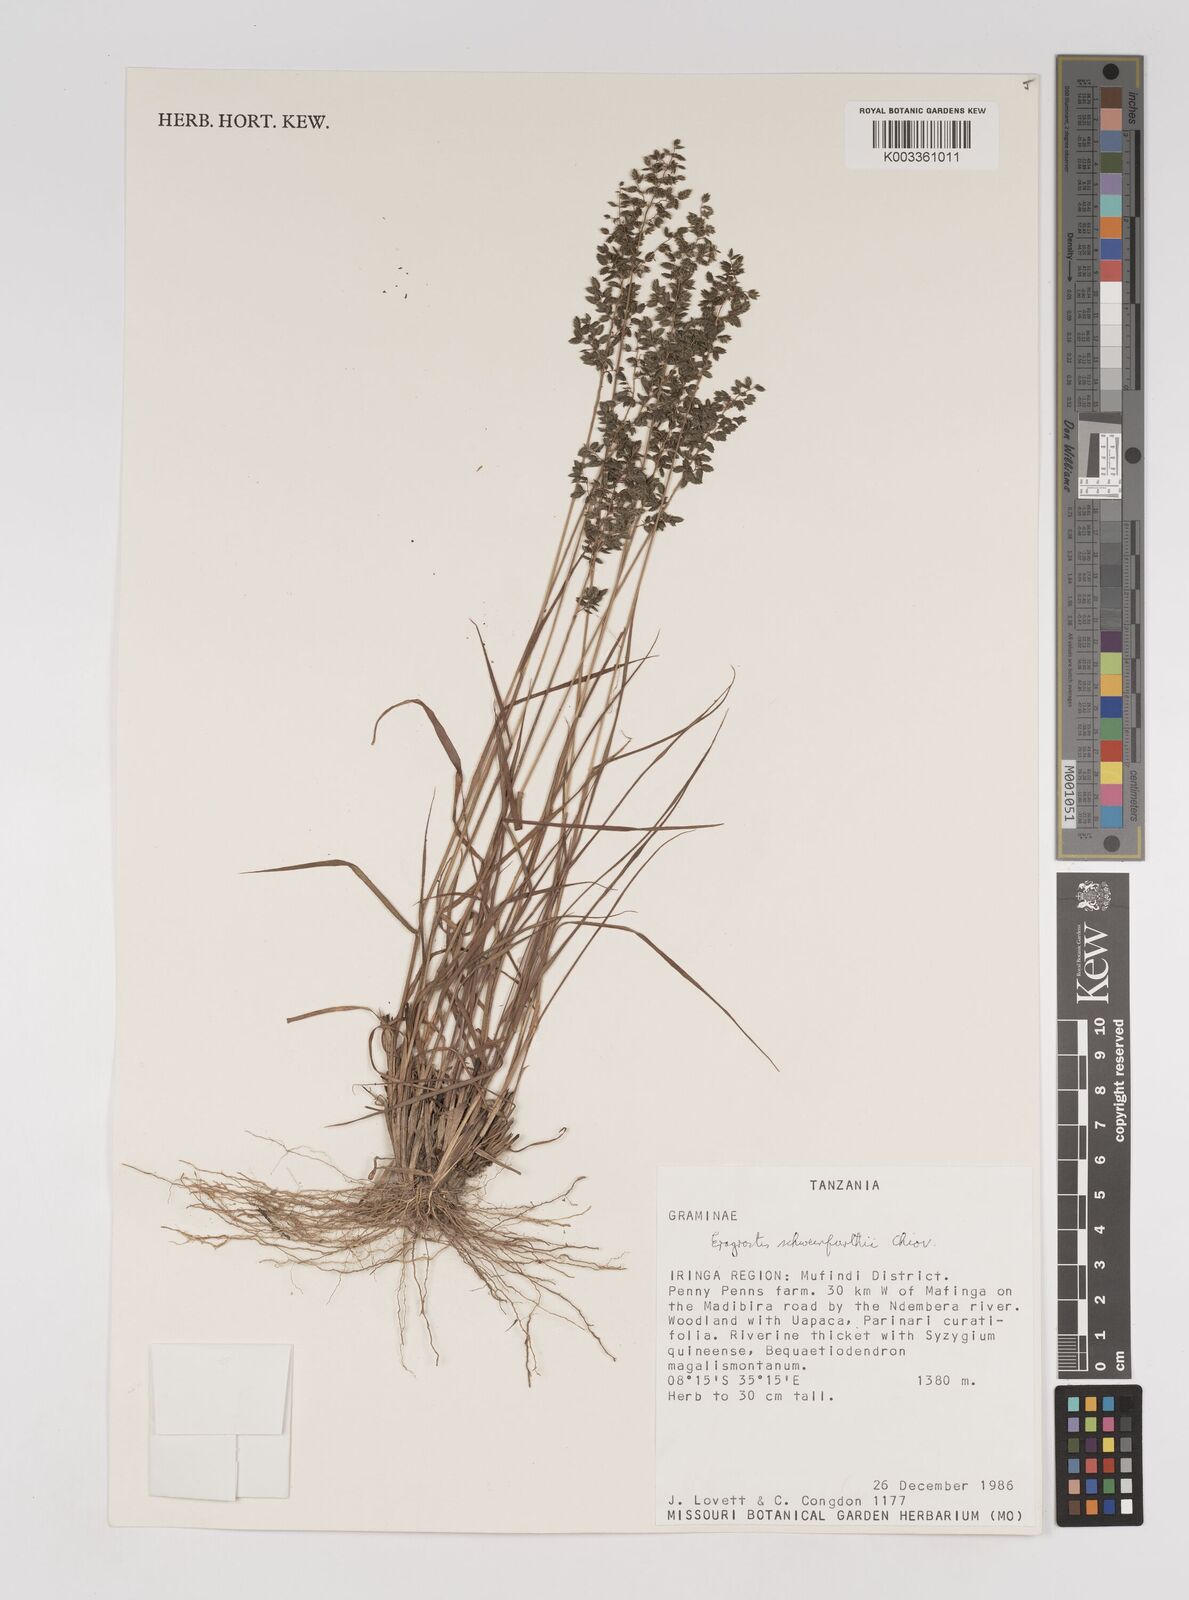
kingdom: Plantae
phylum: Tracheophyta
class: Liliopsida
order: Poales
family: Poaceae
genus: Eragrostis
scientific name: Eragrostis schweinfurthii
